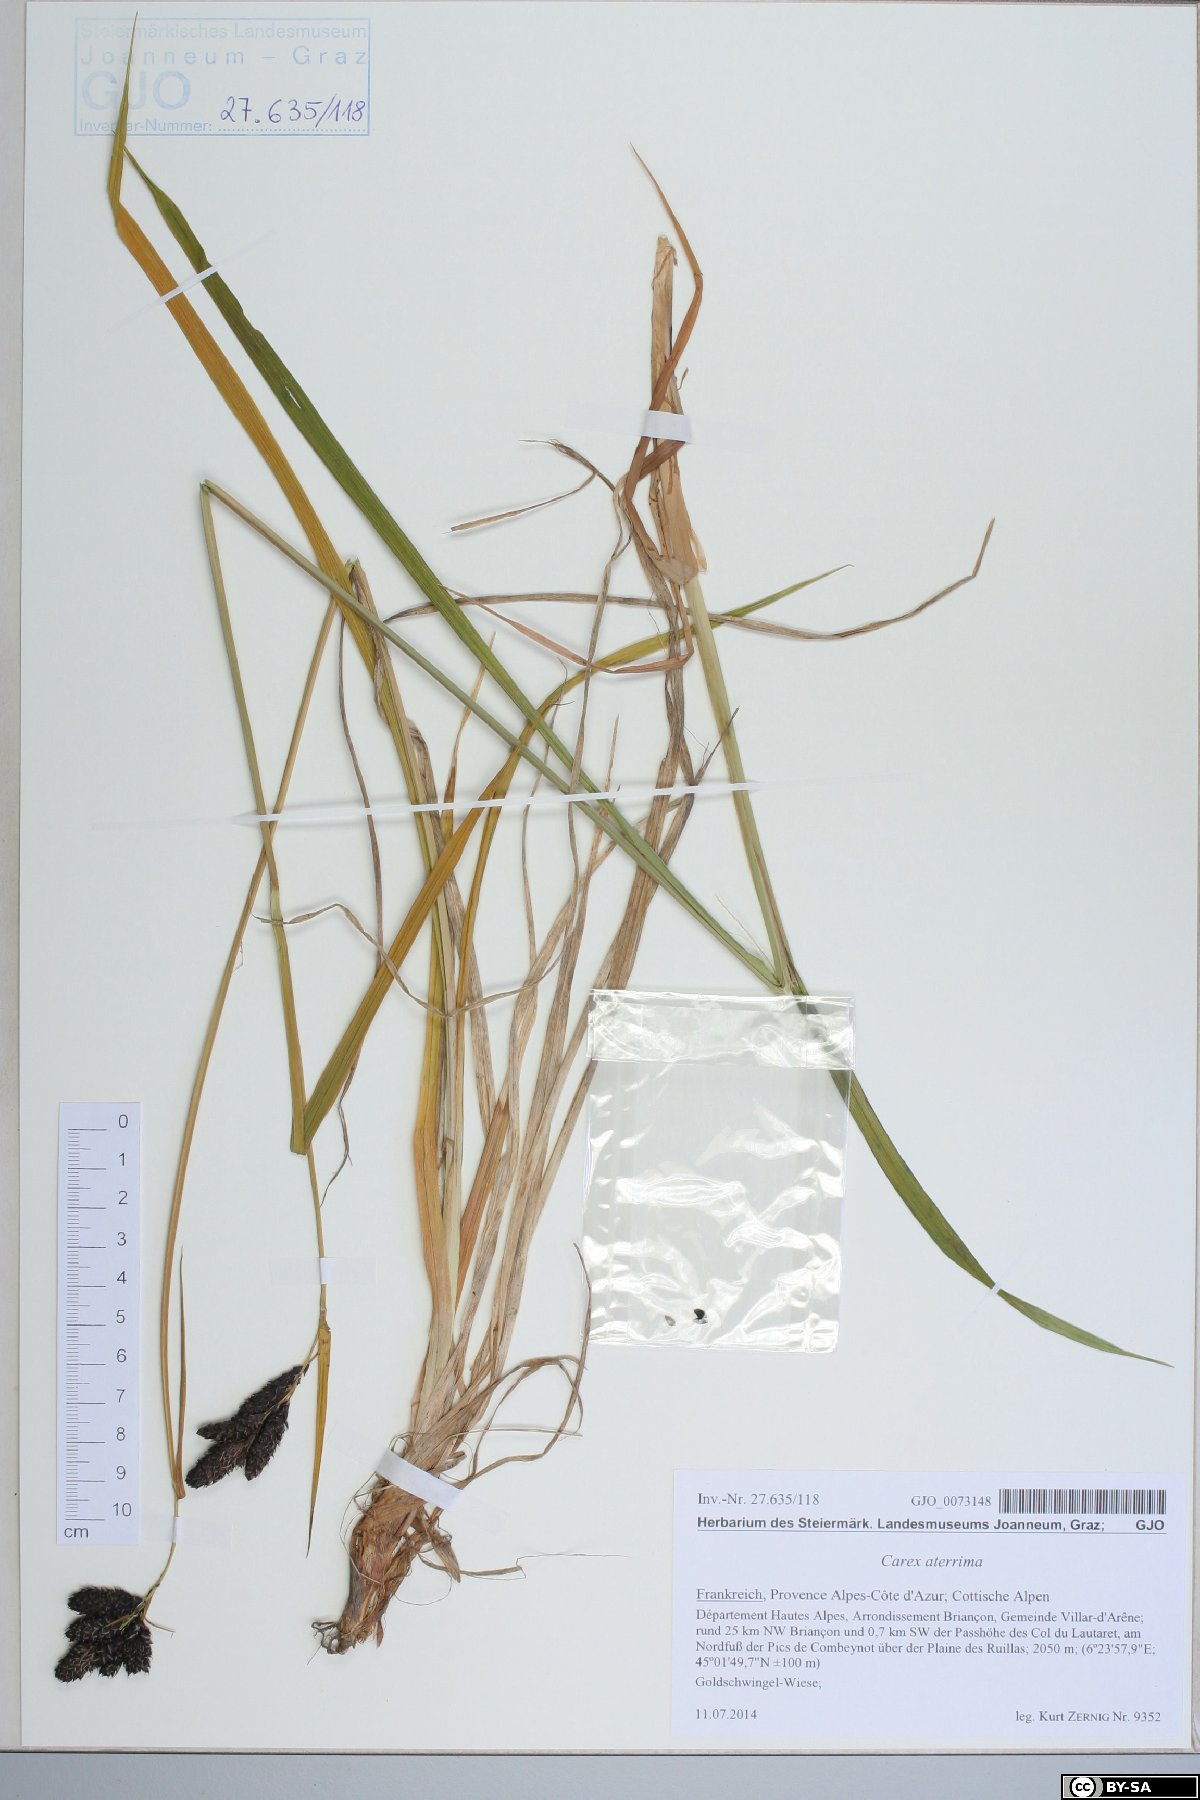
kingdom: Plantae
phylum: Tracheophyta
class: Liliopsida
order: Poales
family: Cyperaceae
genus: Carex
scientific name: Carex aterrima
